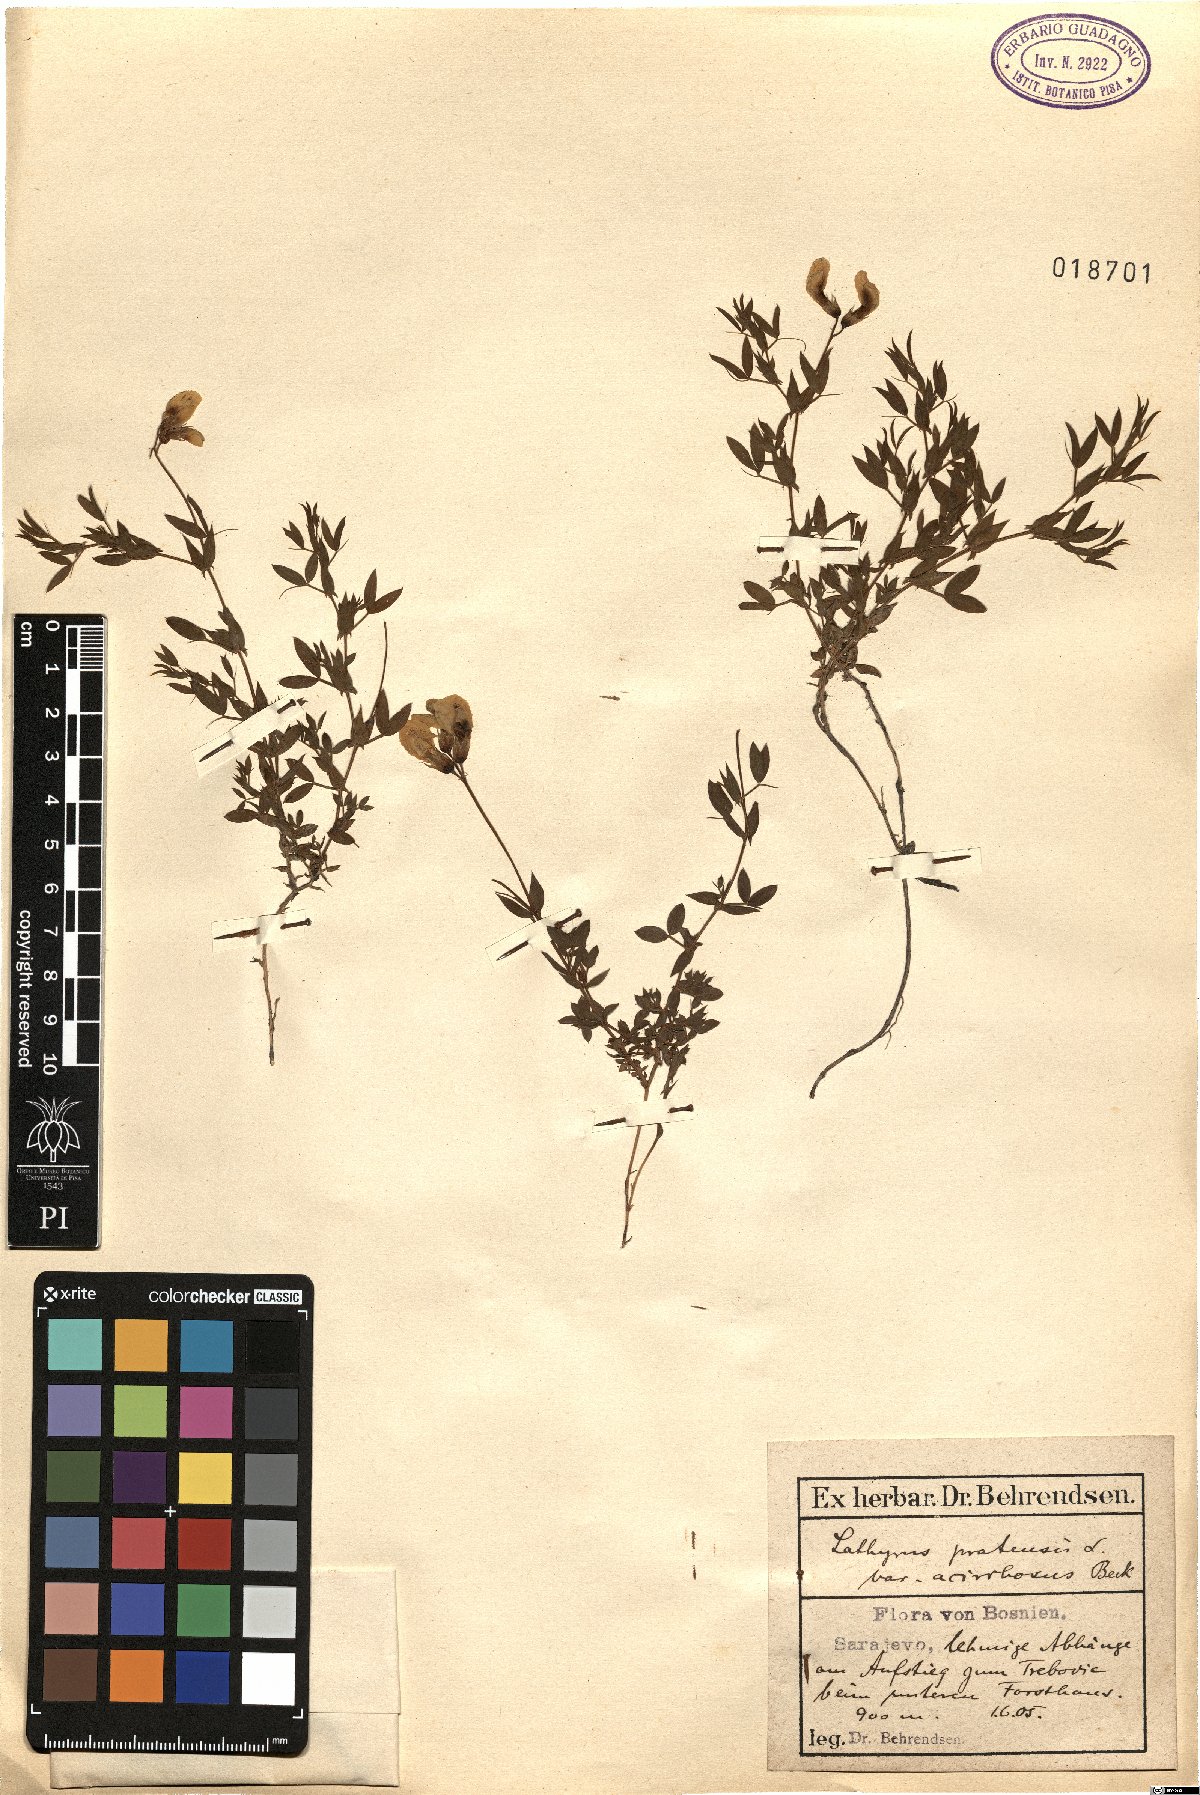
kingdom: Plantae
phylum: Tracheophyta
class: Magnoliopsida
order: Fabales
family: Fabaceae
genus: Lathyrus
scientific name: Lathyrus binatus
